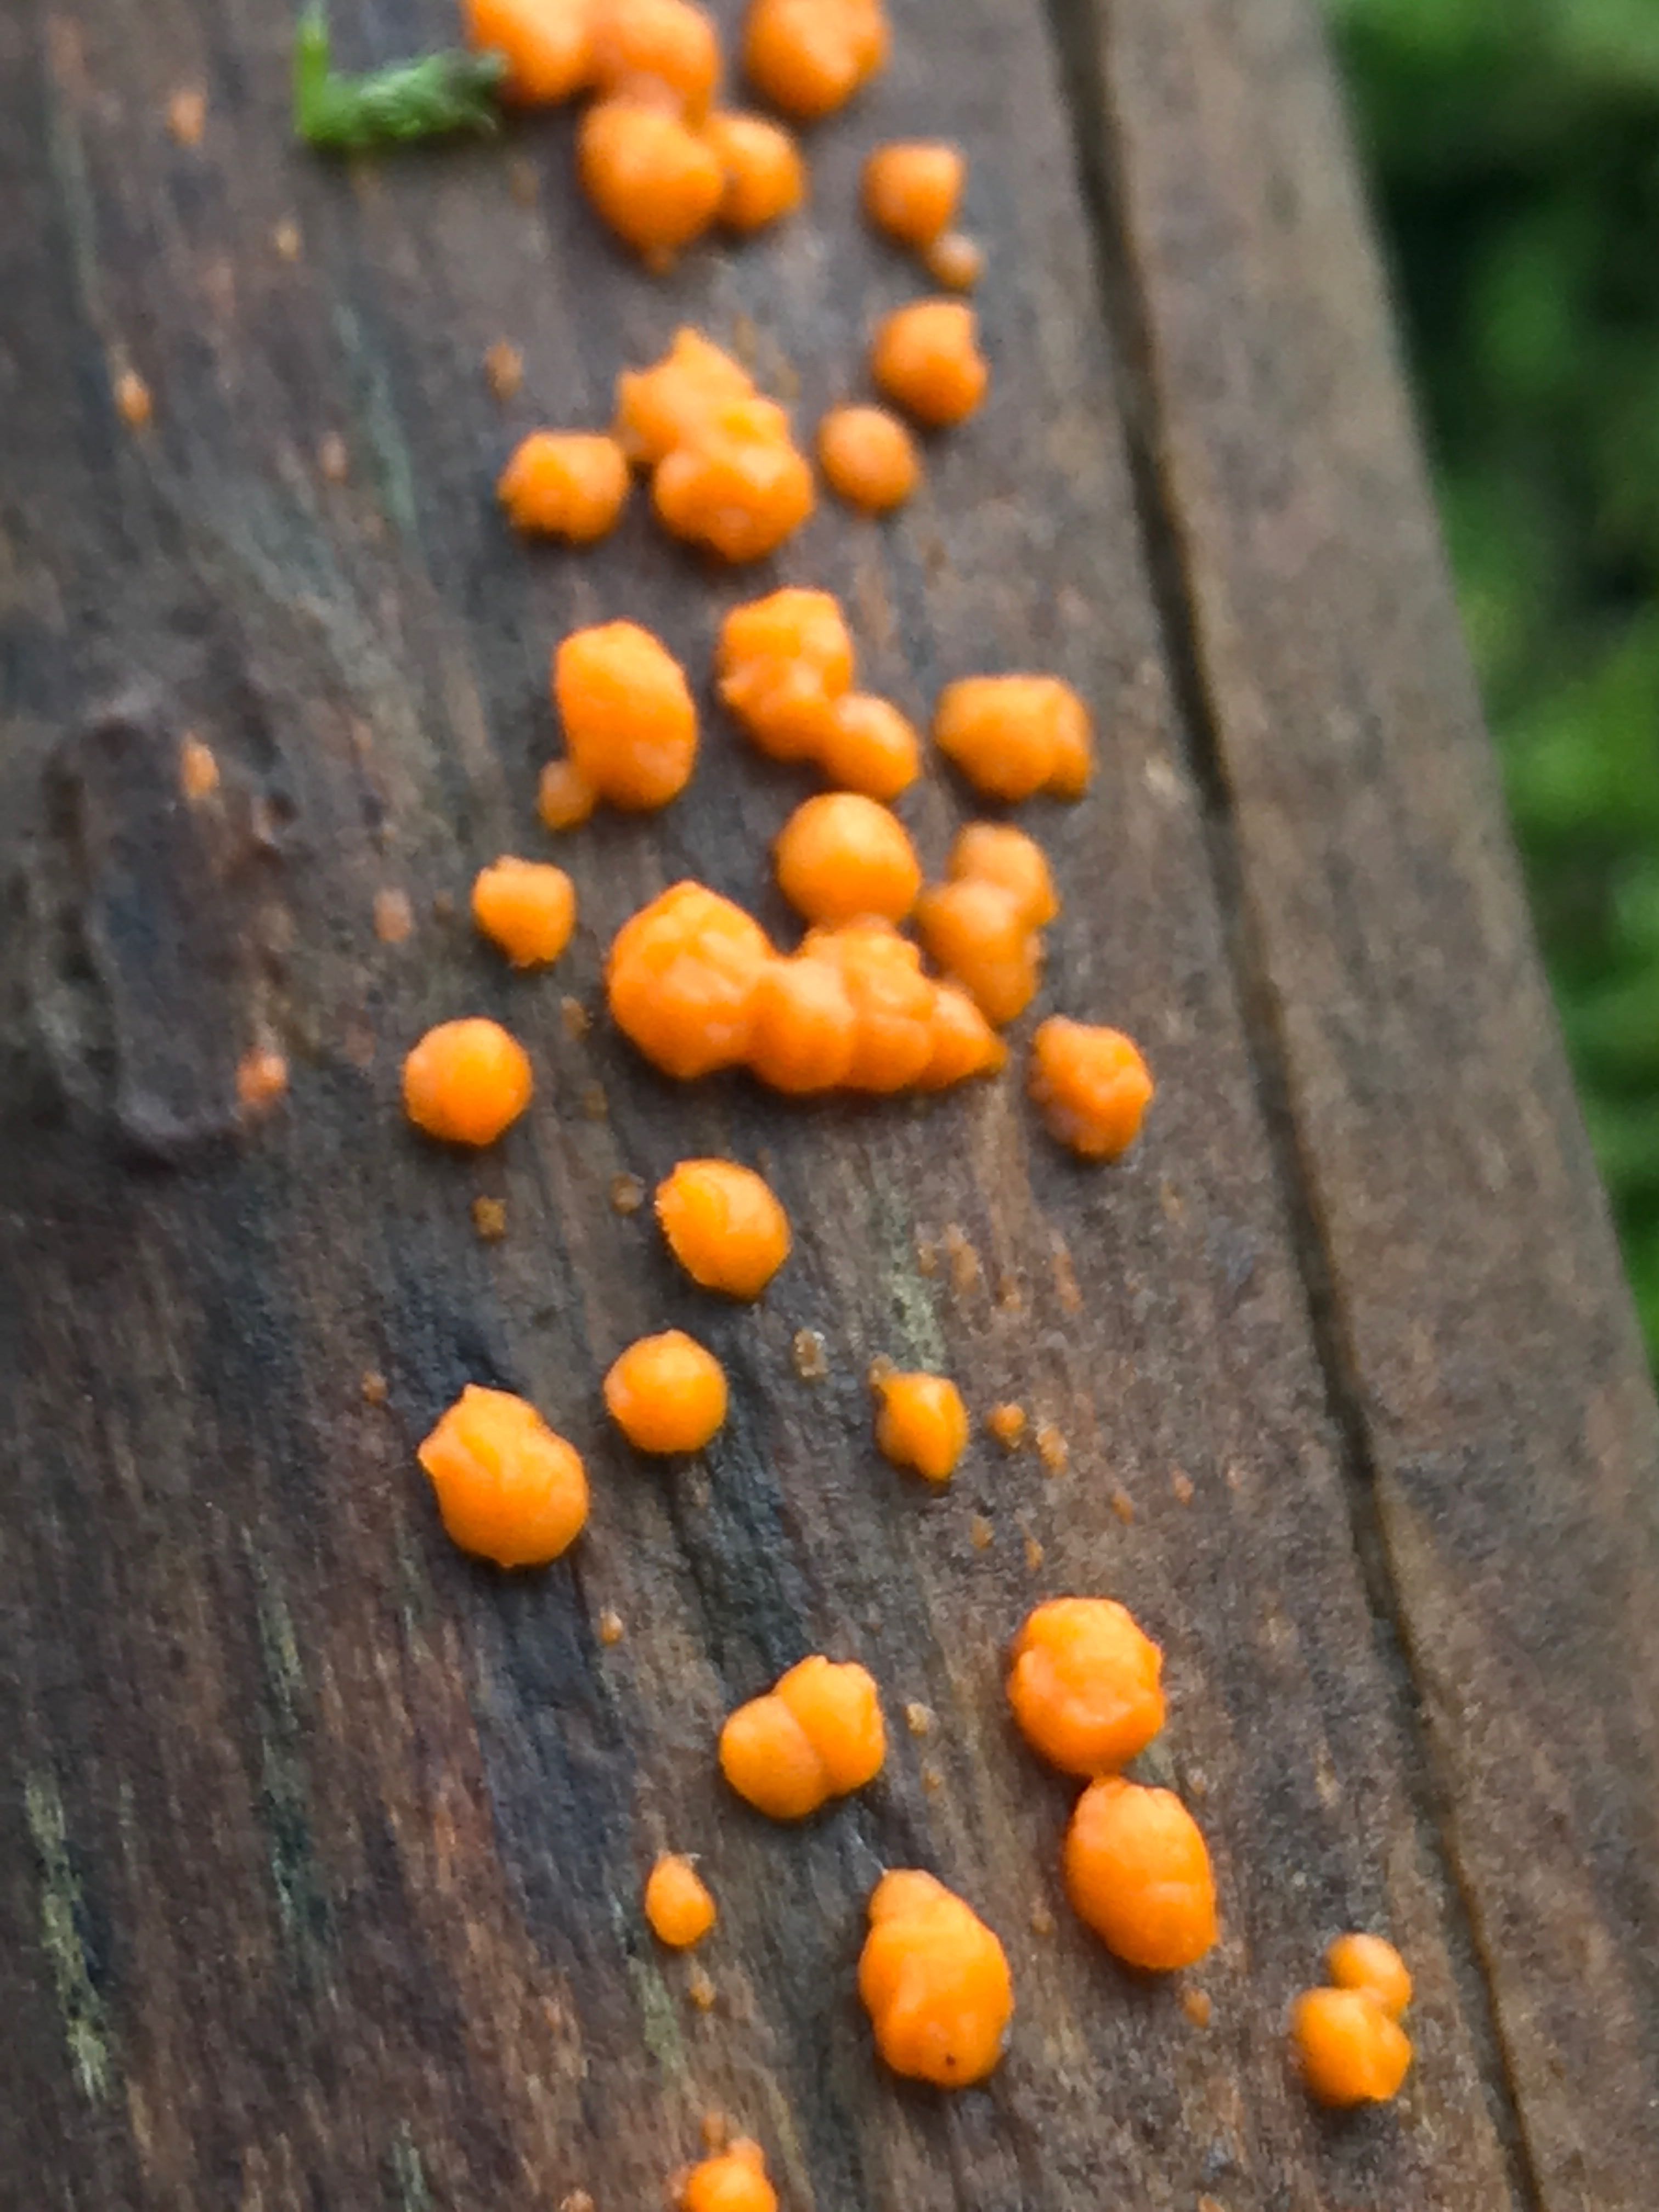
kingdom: Fungi
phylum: Basidiomycota
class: Dacrymycetes
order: Dacrymycetales
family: Dacrymycetaceae
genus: Dacrymyces
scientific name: Dacrymyces stillatus
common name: almindelig tåresvamp
